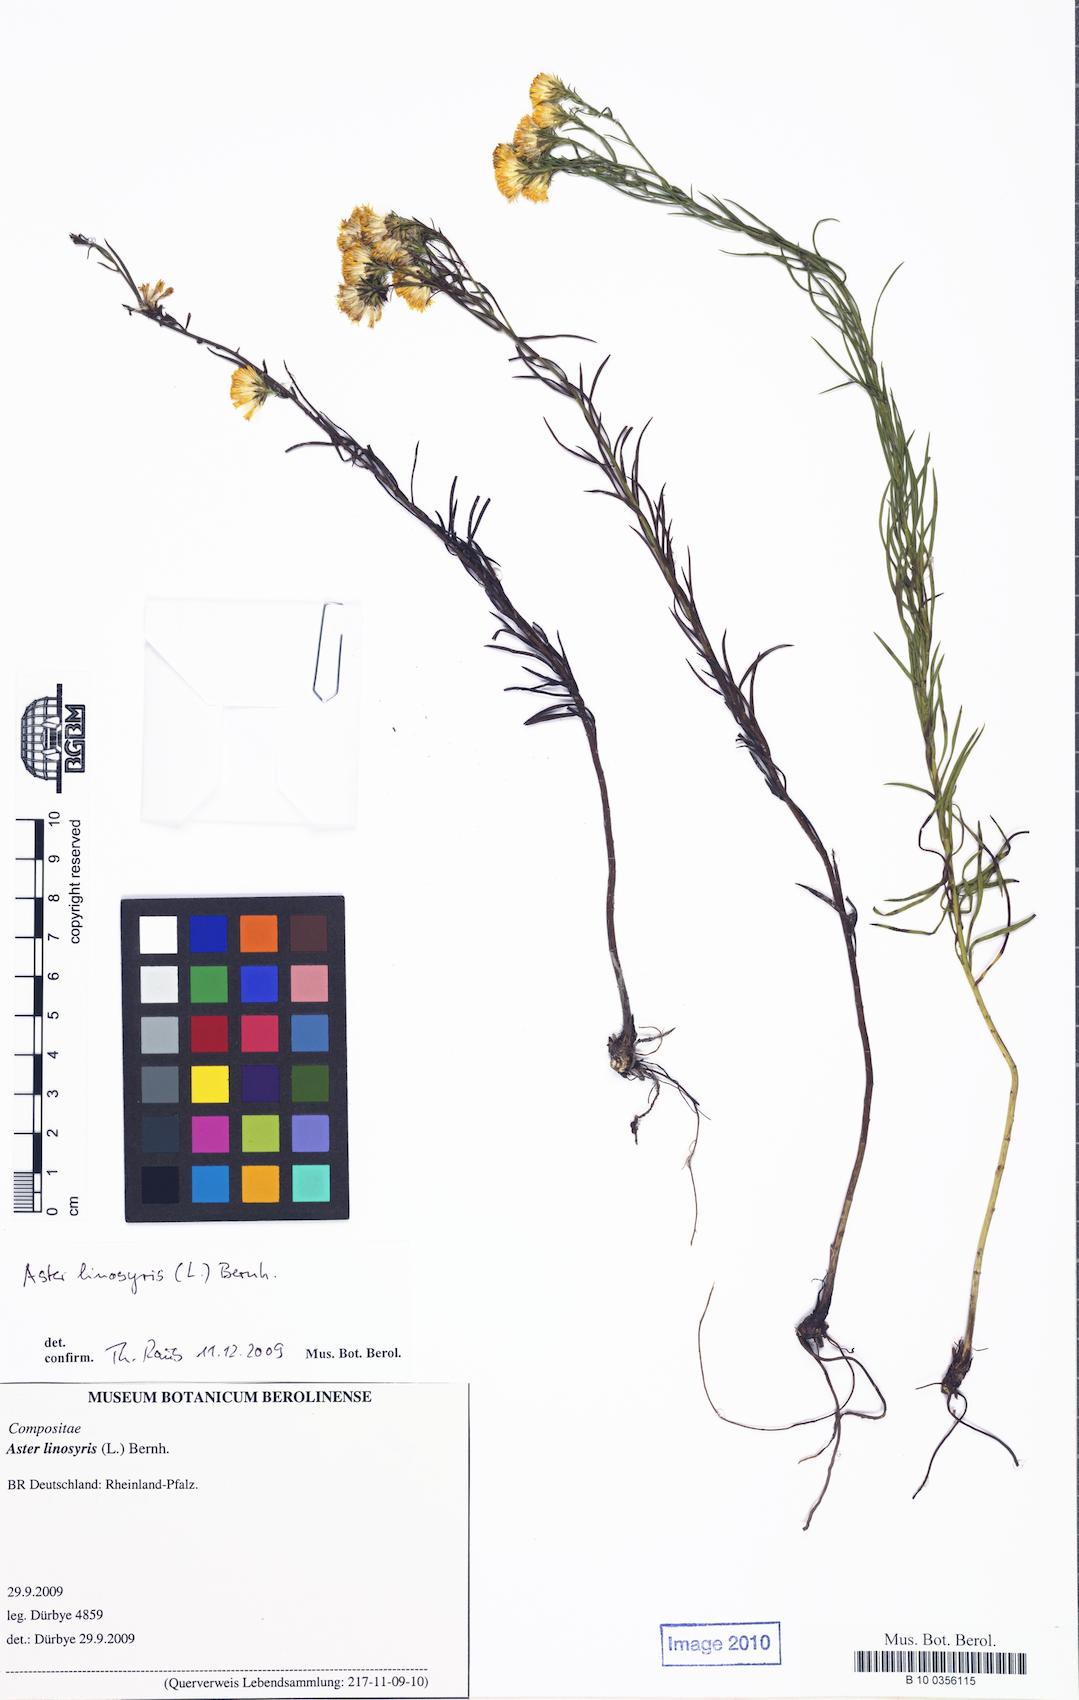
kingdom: Plantae
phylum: Tracheophyta
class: Magnoliopsida
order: Asterales
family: Asteraceae
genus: Galatella
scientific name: Galatella linosyris
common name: Goldilocks aster
